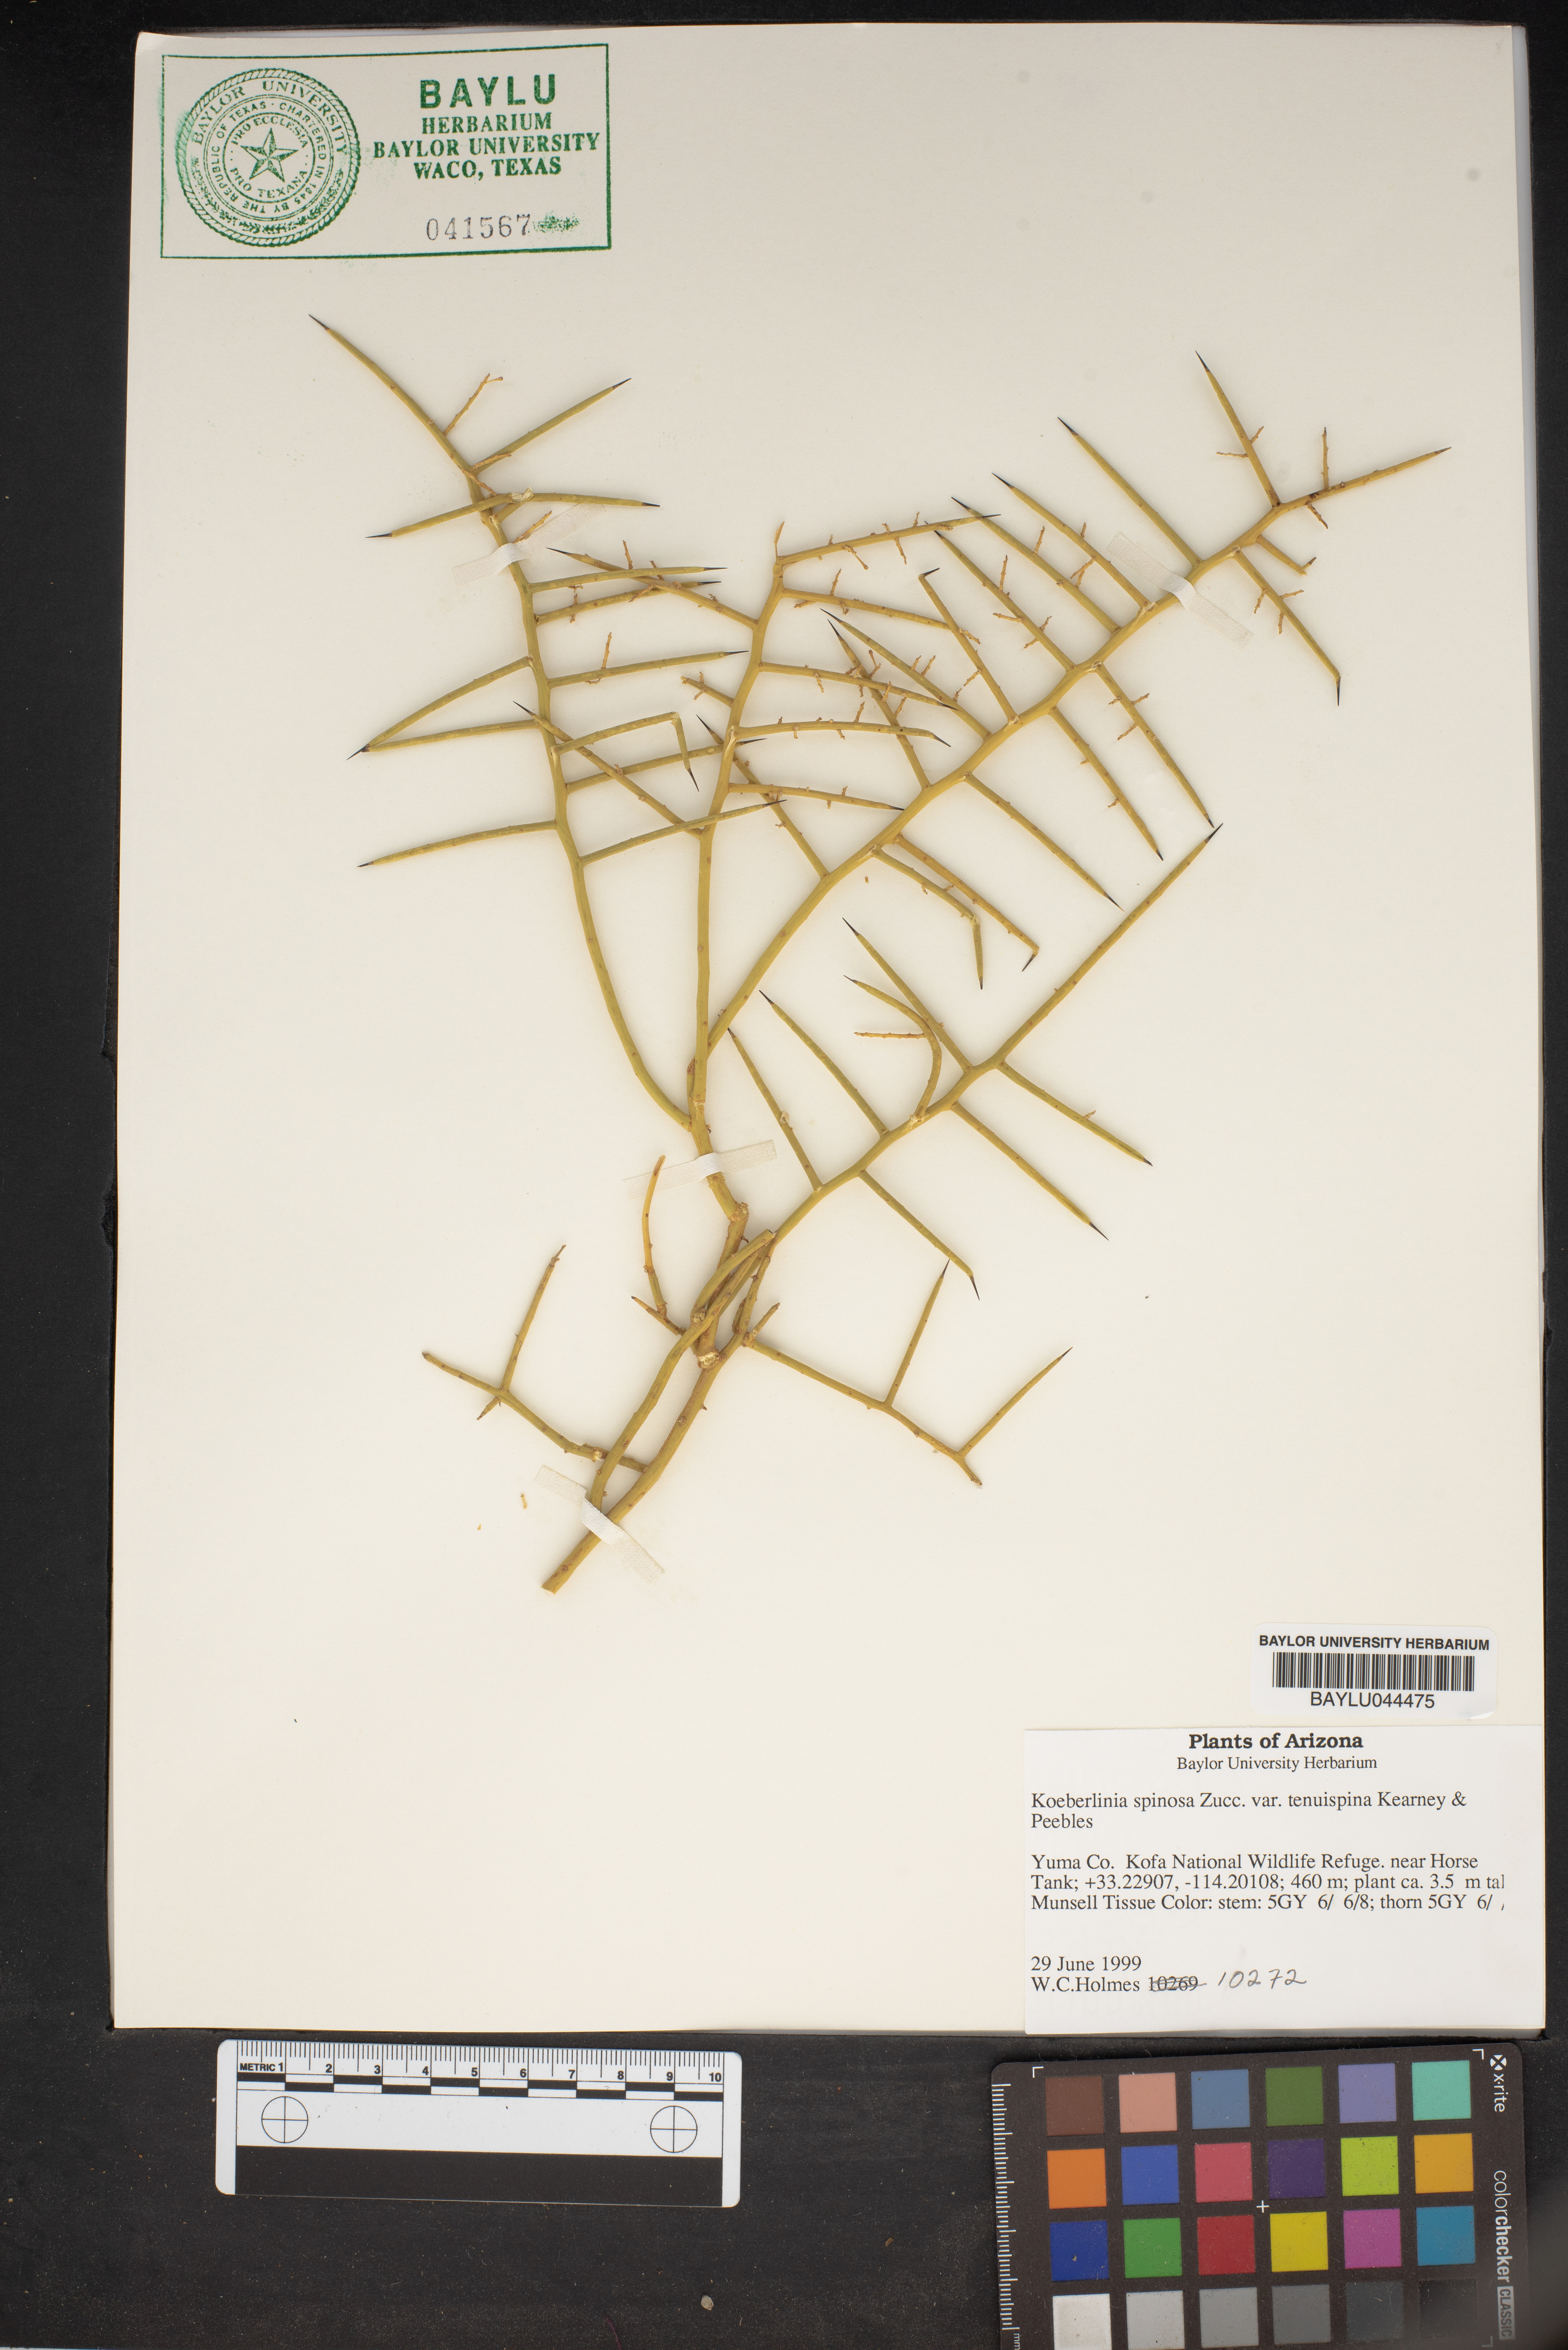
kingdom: Plantae
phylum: Tracheophyta
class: Magnoliopsida
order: Brassicales
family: Koeberliniaceae
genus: Koeberlinia
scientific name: Koeberlinia spinosa
